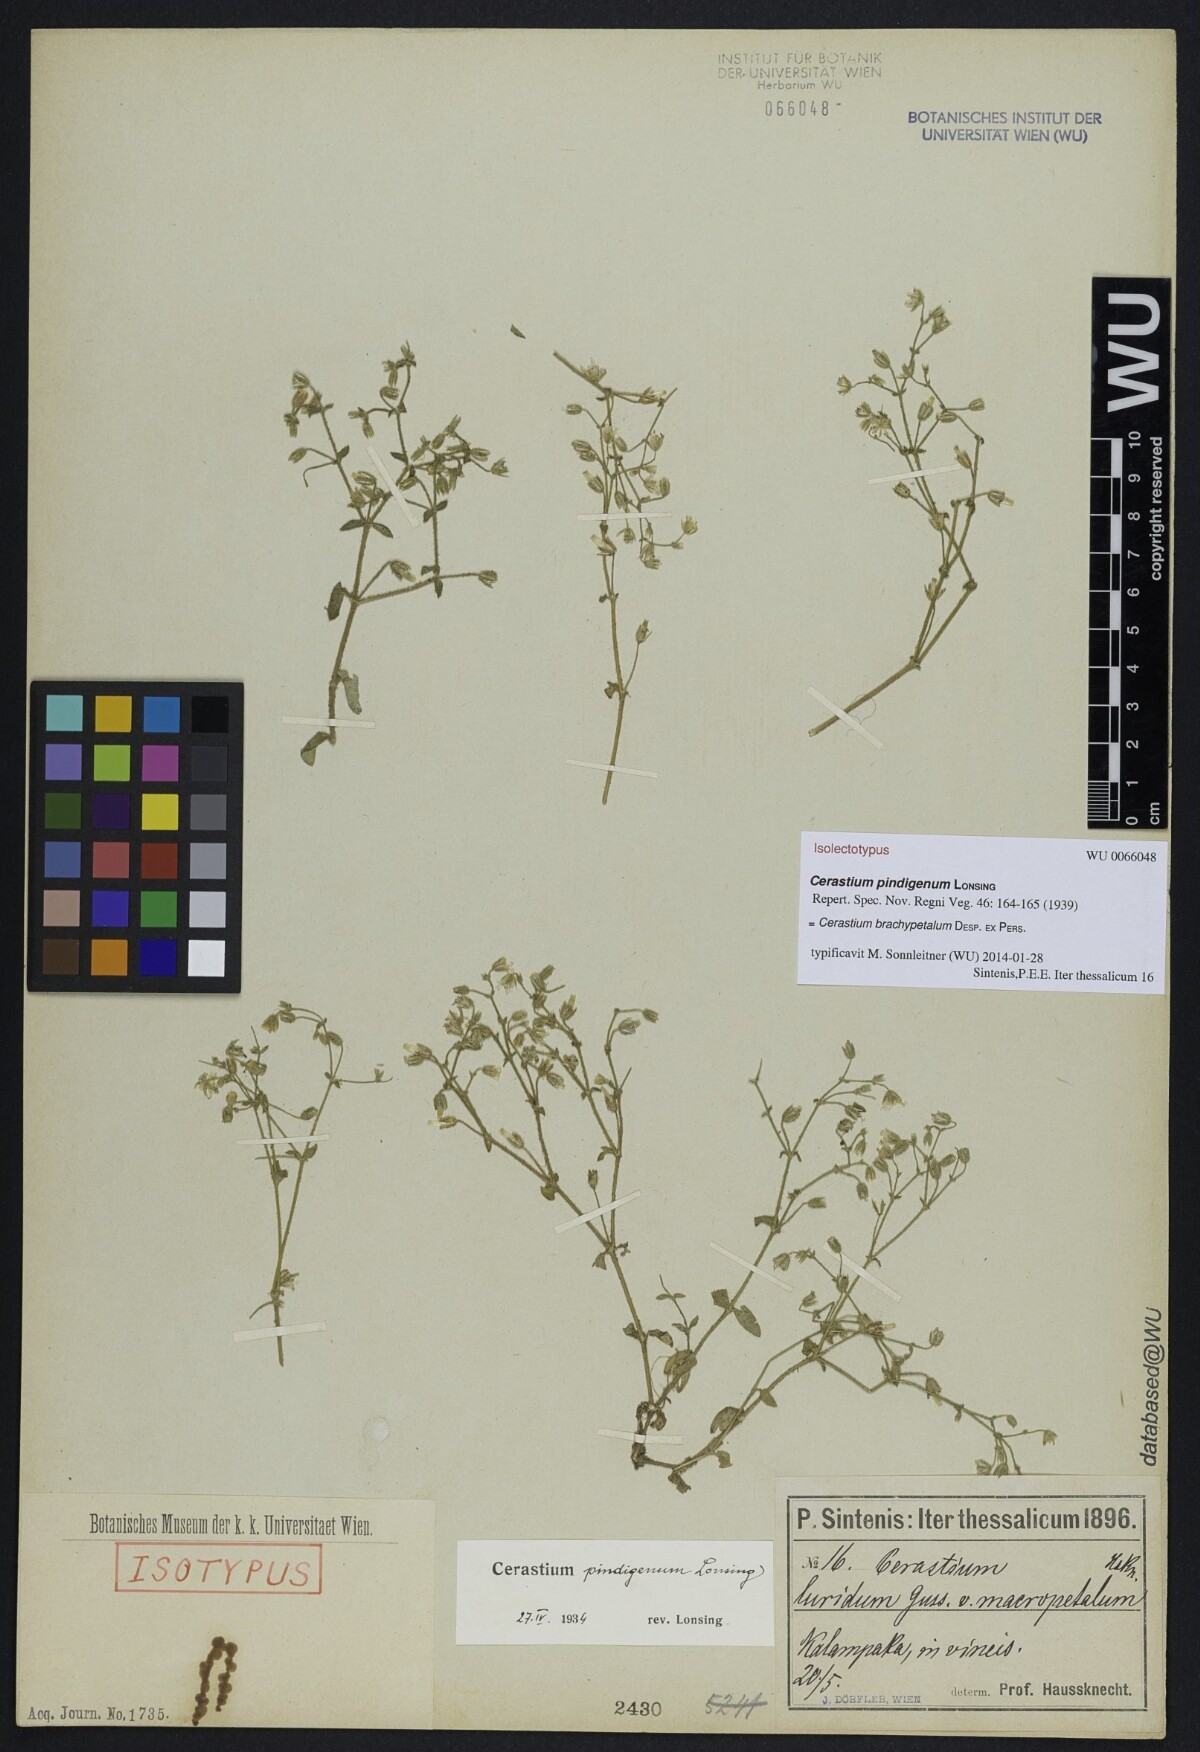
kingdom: Plantae
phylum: Tracheophyta
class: Magnoliopsida
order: Caryophyllales
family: Caryophyllaceae
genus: Cerastium
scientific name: Cerastium brachypetalum
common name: Grey mouse-ear
